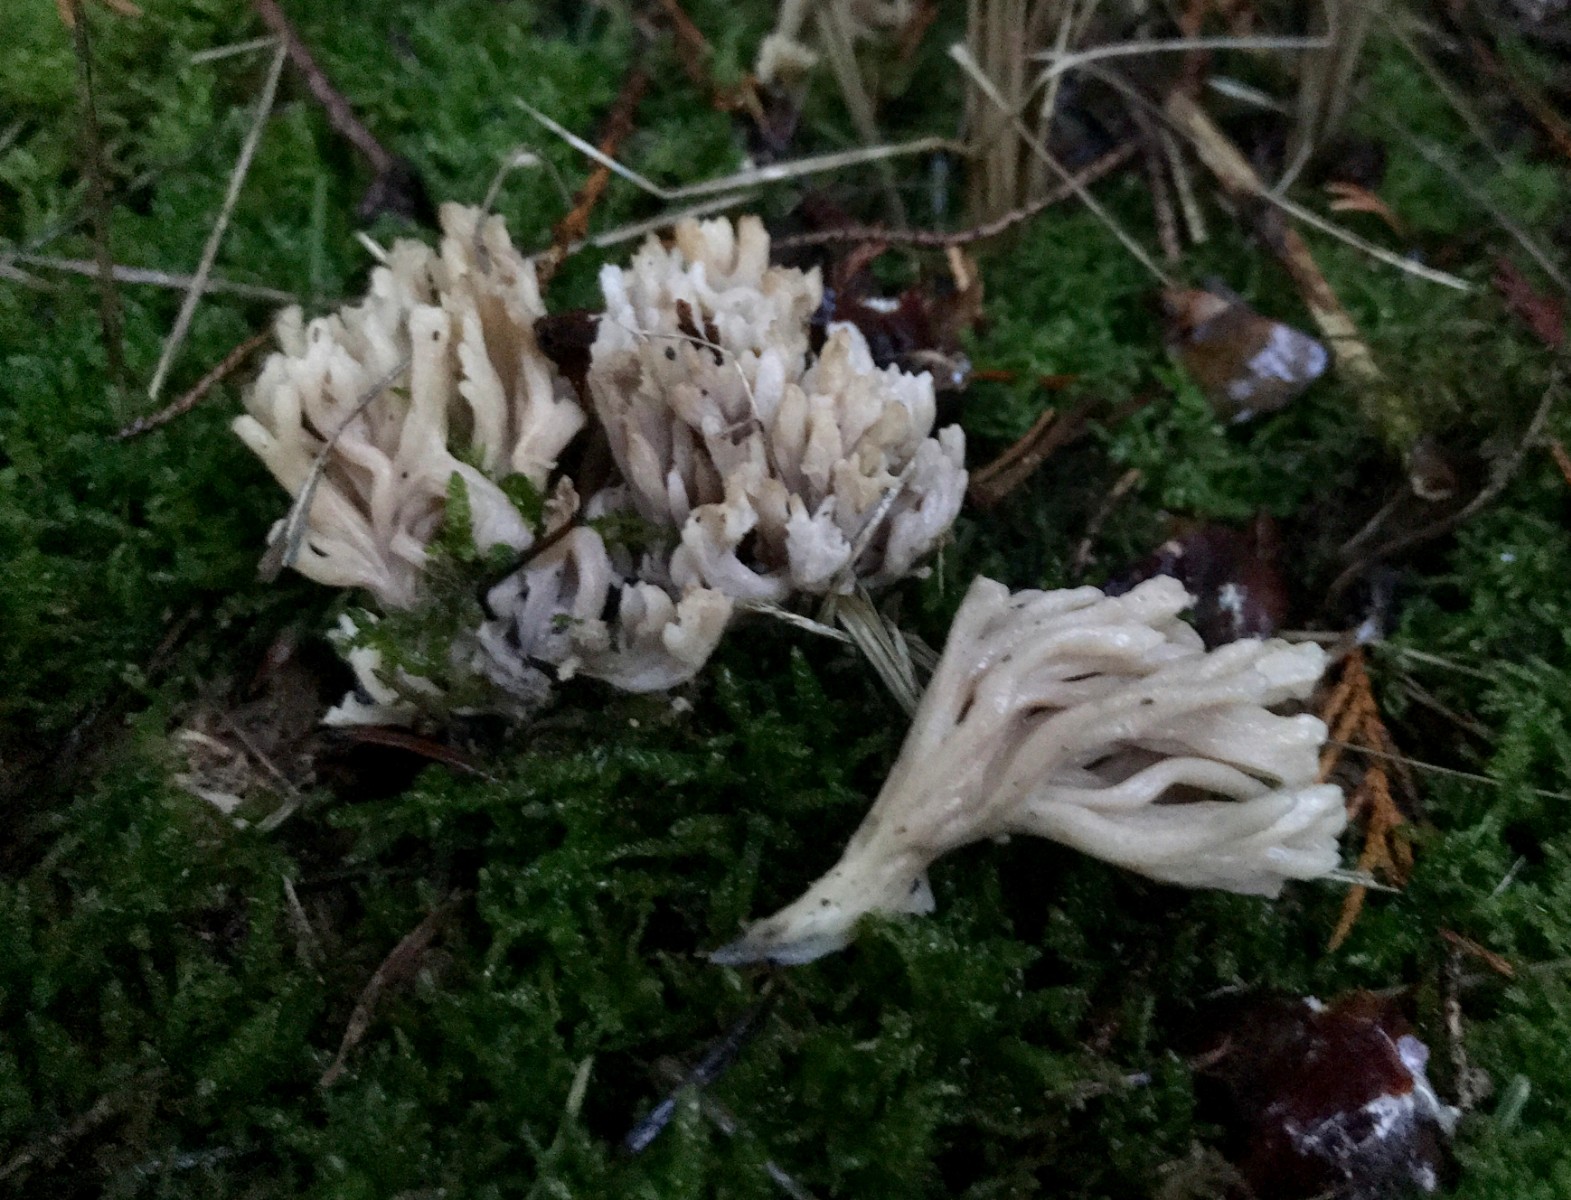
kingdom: Fungi
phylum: Basidiomycota
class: Agaricomycetes
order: Cantharellales
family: Hydnaceae
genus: Clavulina
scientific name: Clavulina
